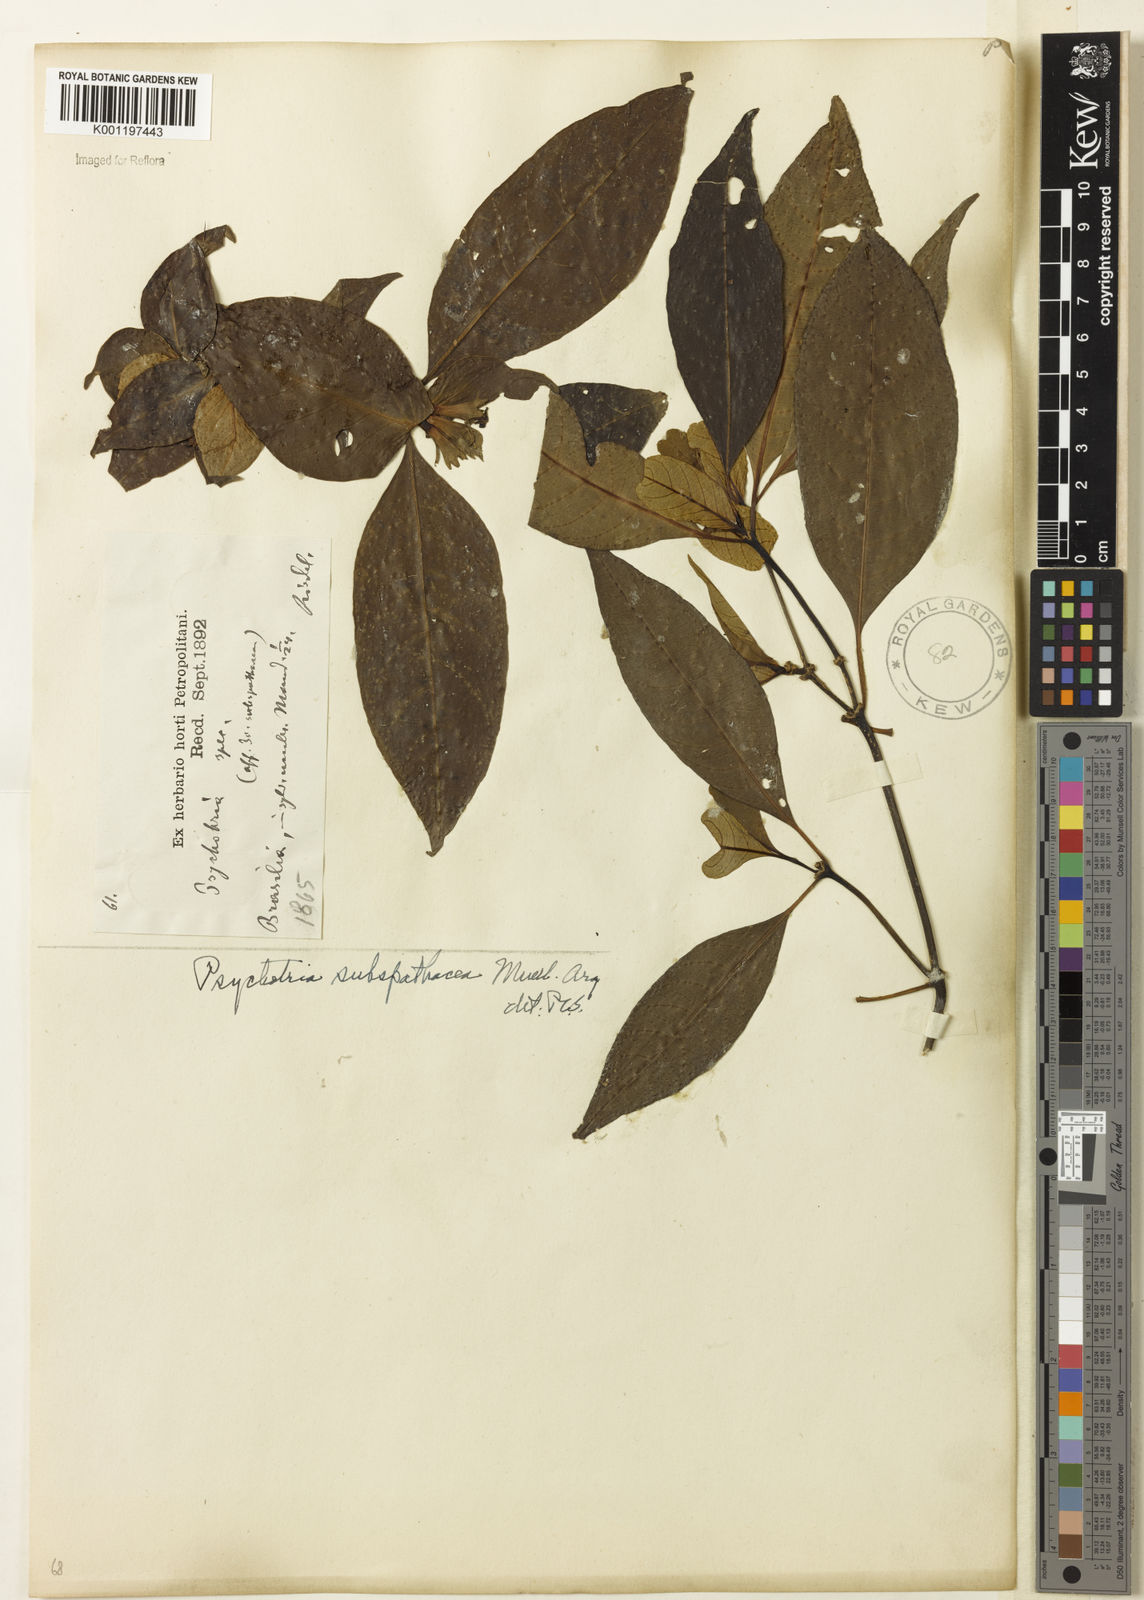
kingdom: Plantae
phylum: Tracheophyta
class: Magnoliopsida
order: Gentianales
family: Rubiaceae
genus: Psychotria
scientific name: Psychotria
